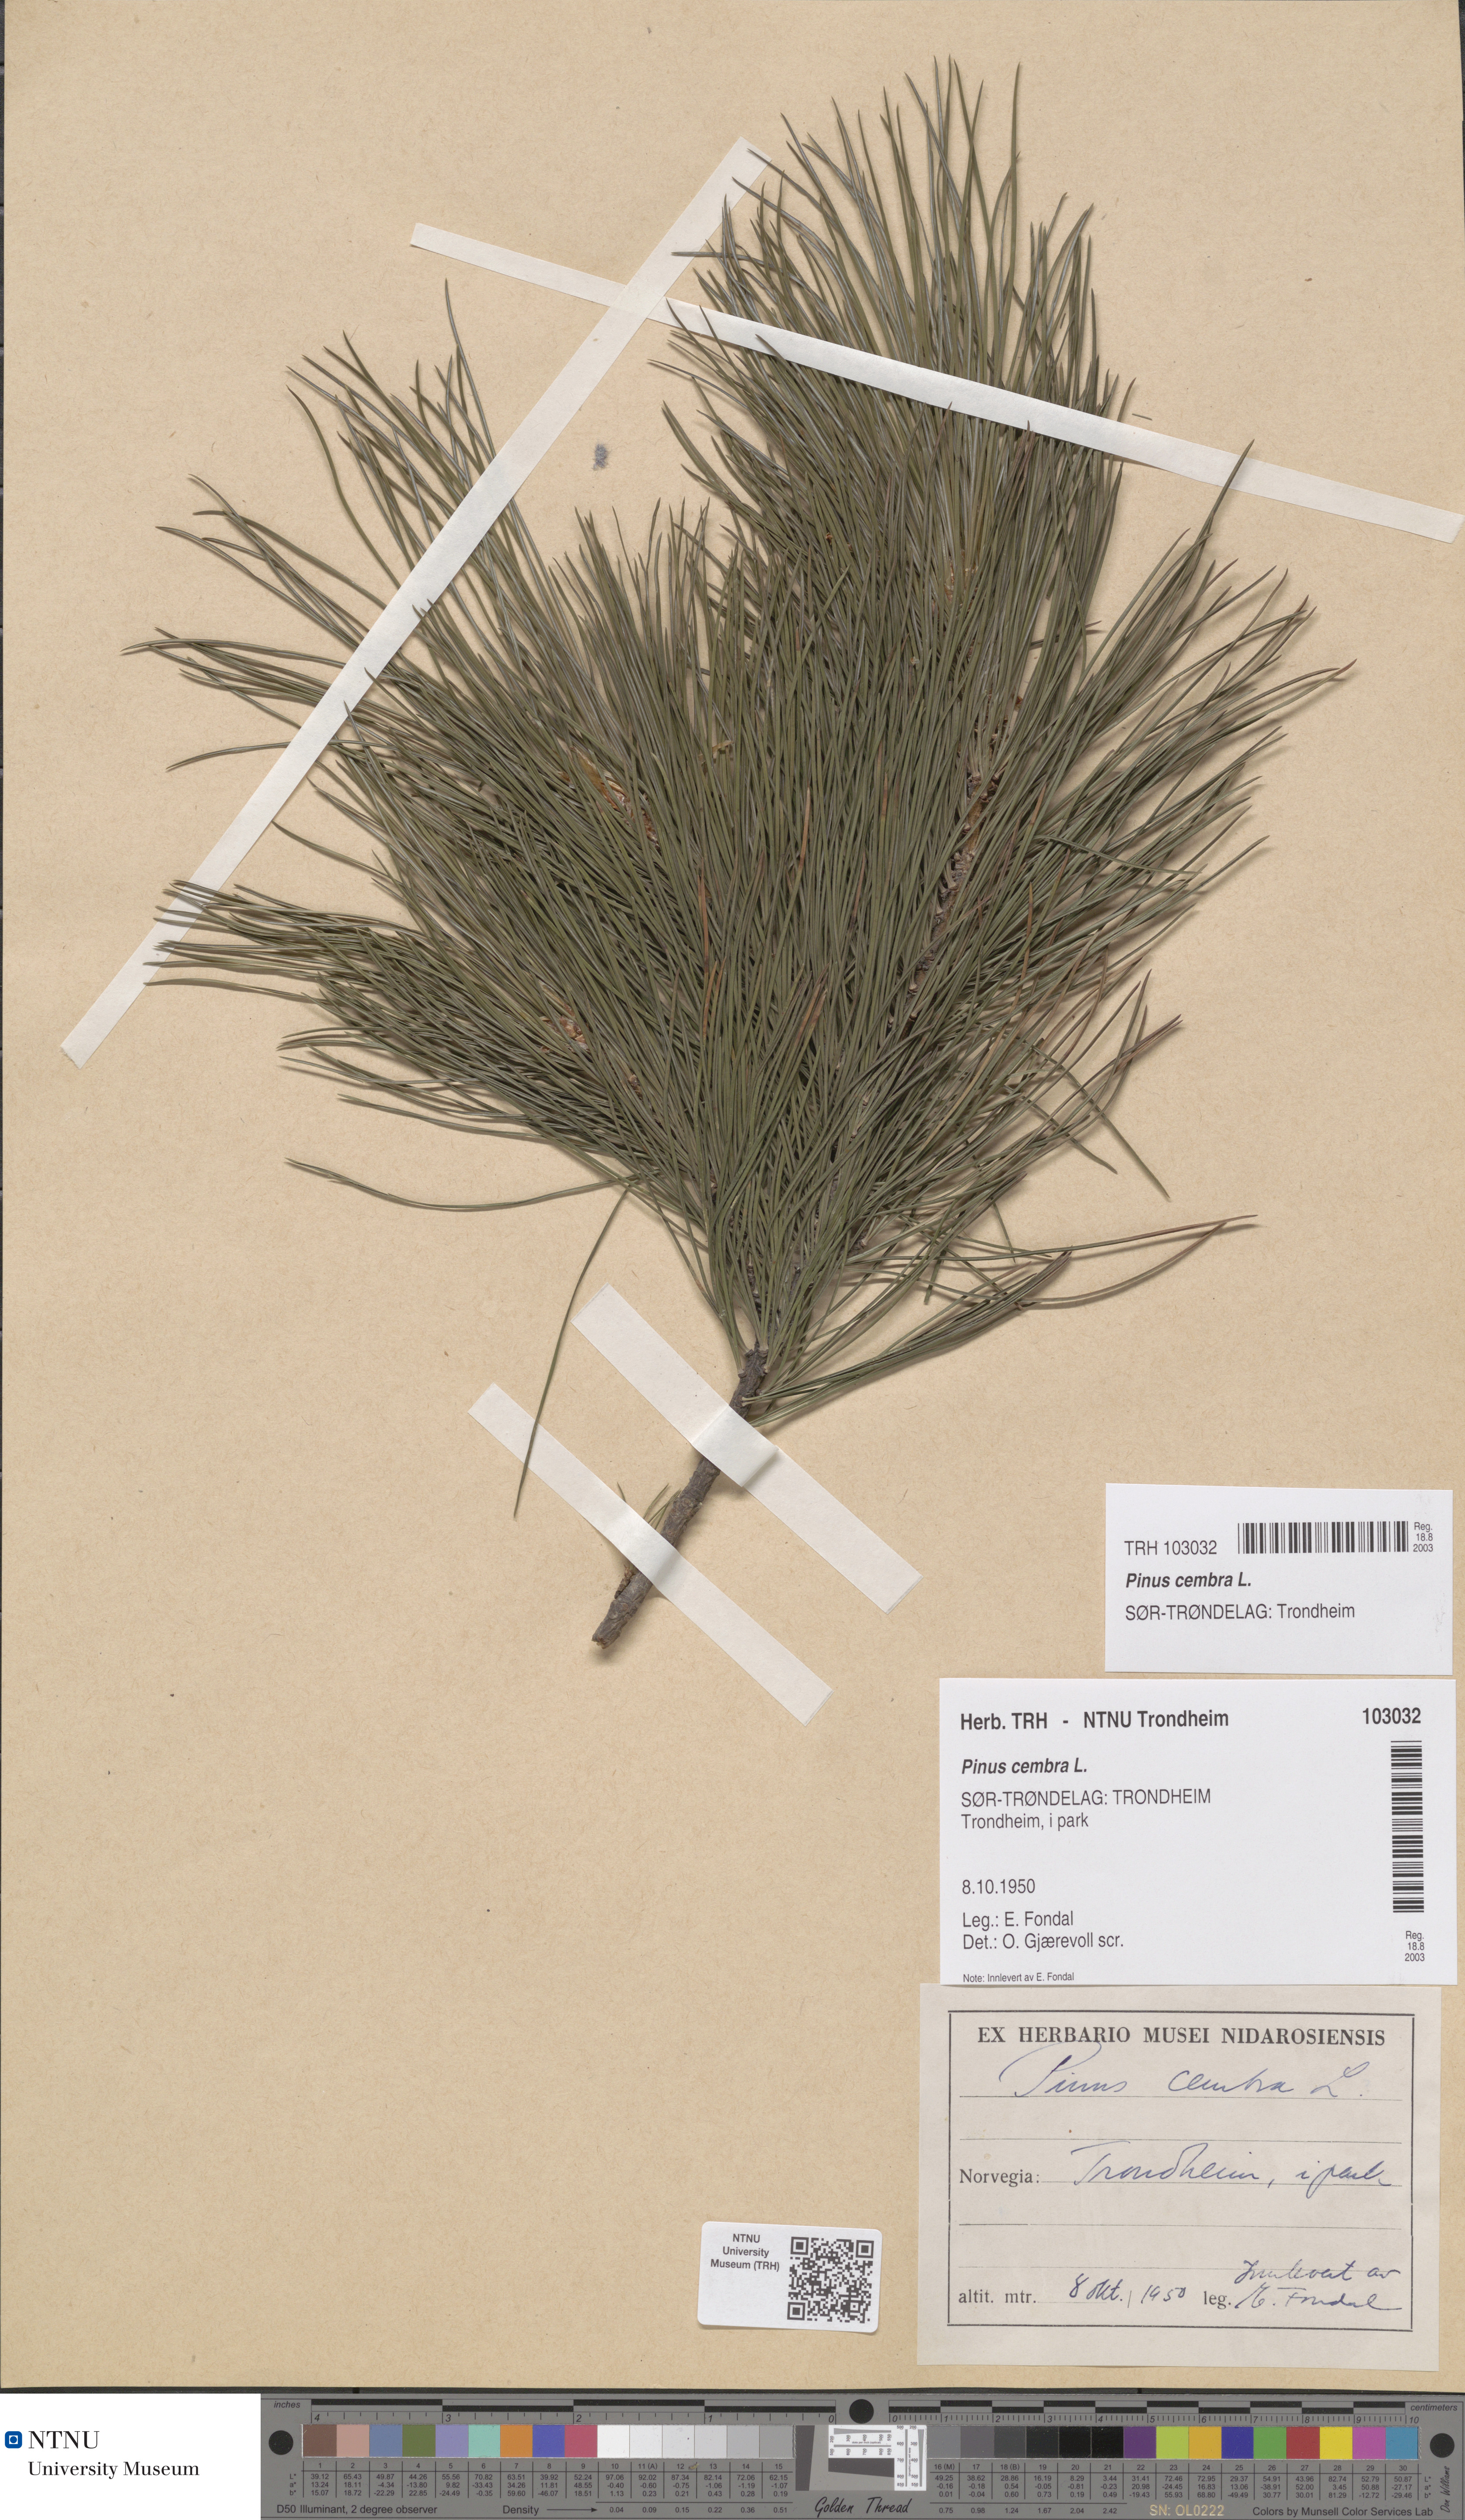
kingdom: Plantae
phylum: Tracheophyta
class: Pinopsida
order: Pinales
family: Pinaceae
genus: Pinus
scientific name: Pinus cembra
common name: Arolla pine
